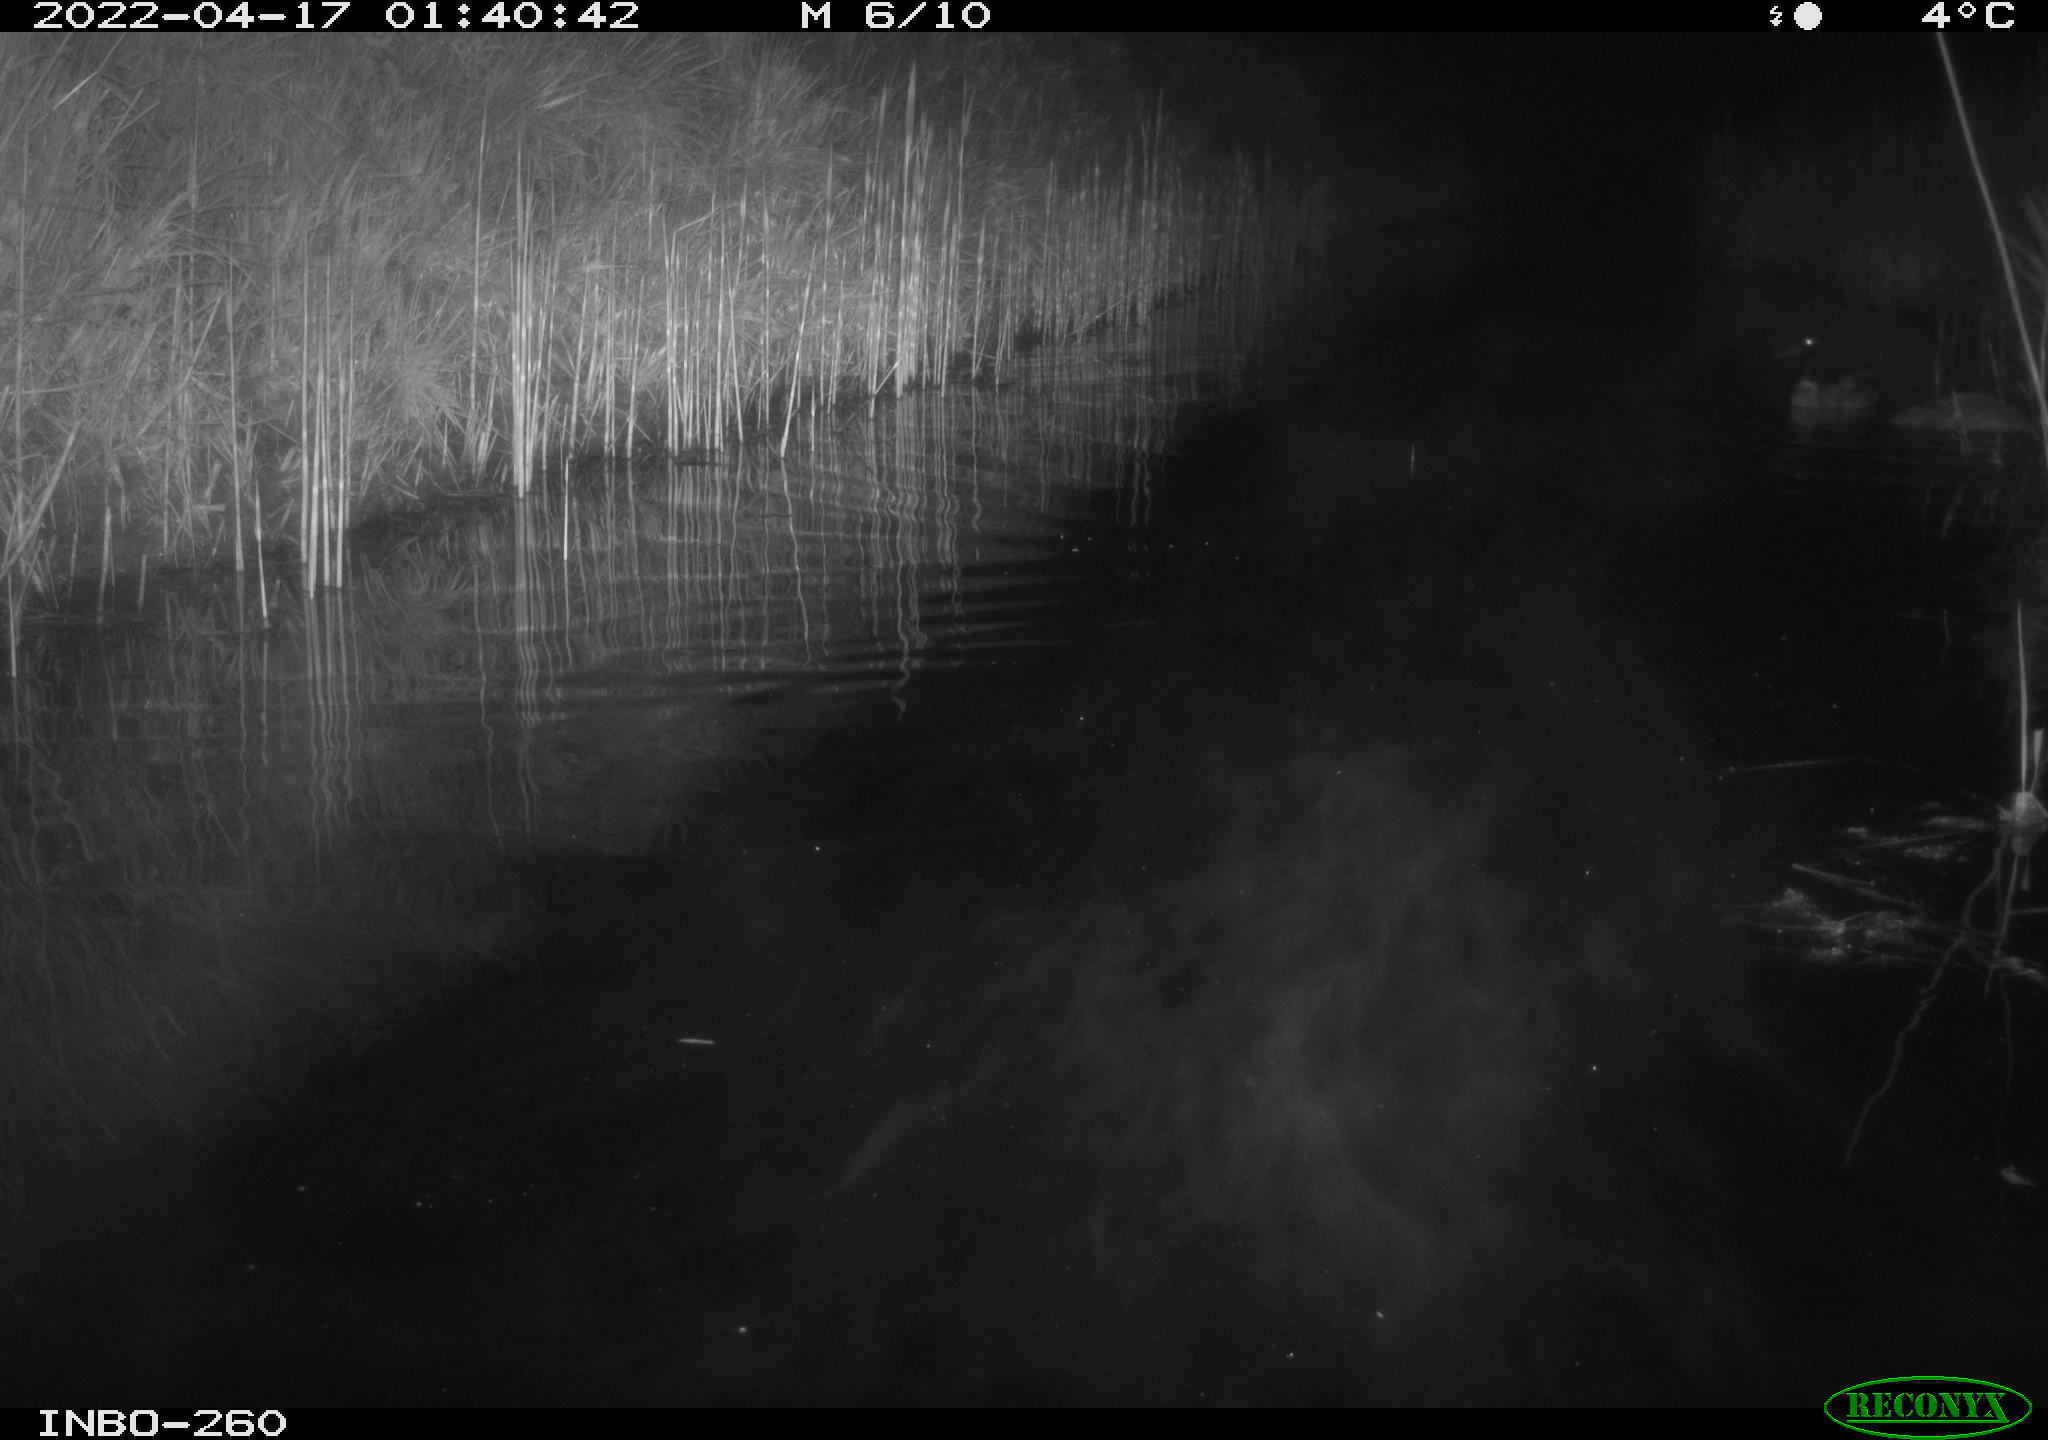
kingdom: Animalia
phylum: Chordata
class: Aves
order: Anseriformes
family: Anatidae
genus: Anas
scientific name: Anas platyrhynchos
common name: Mallard
